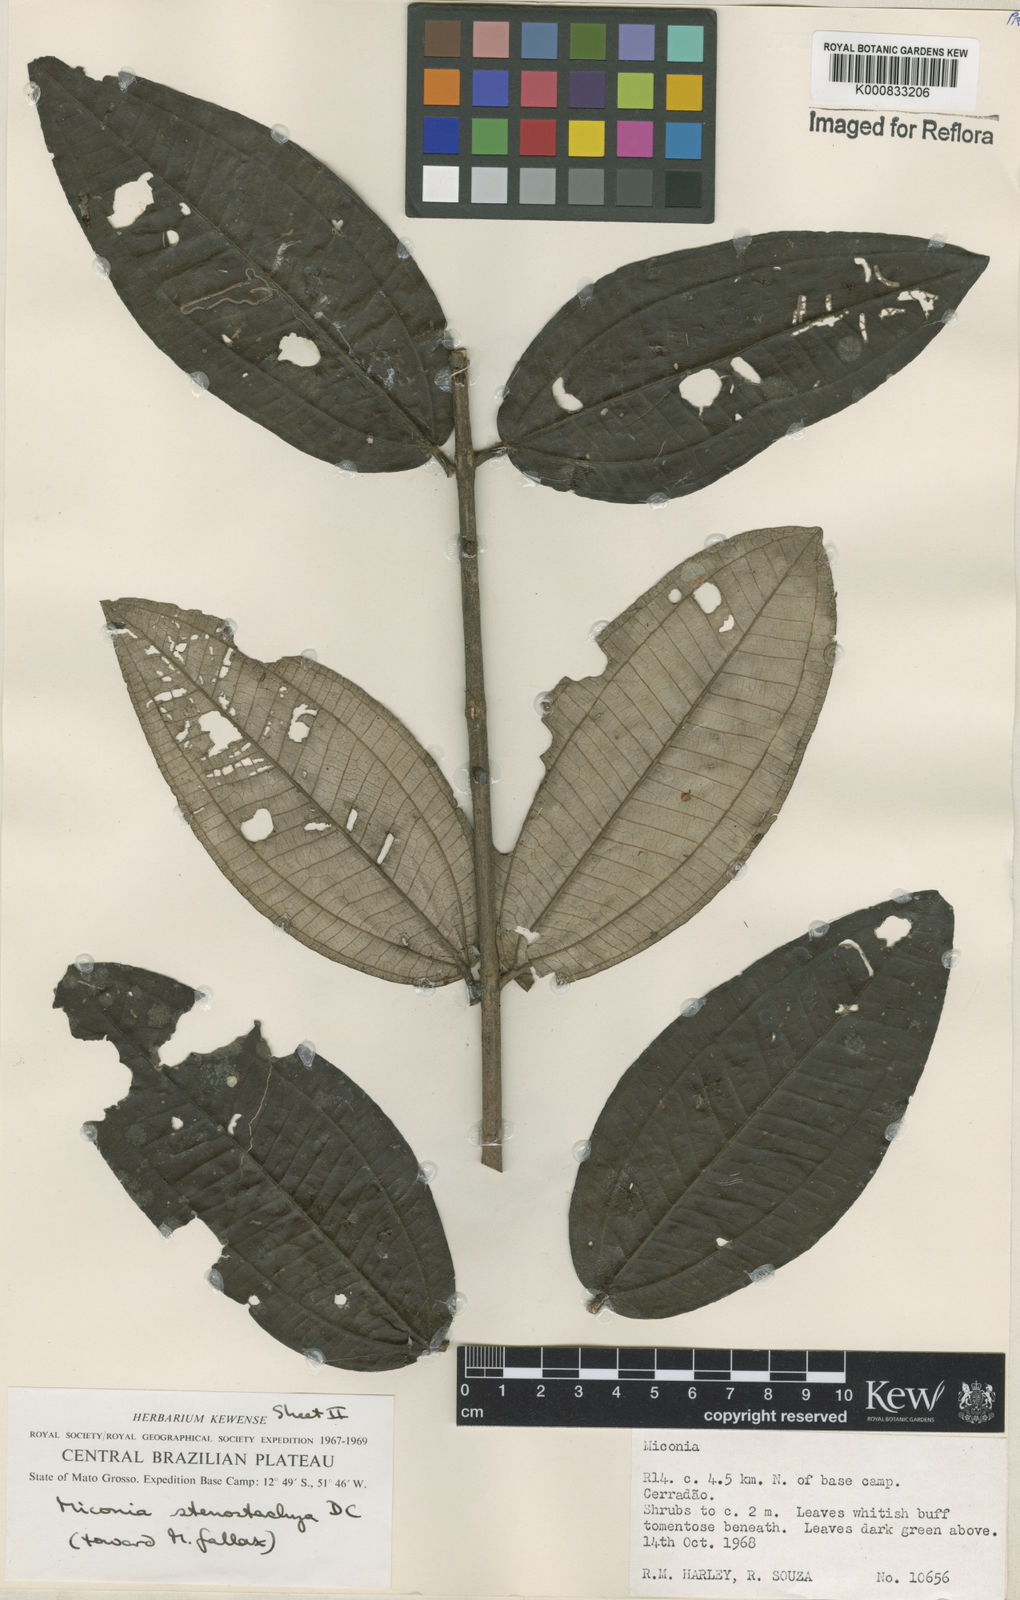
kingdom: Plantae
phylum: Tracheophyta
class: Magnoliopsida
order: Myrtales
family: Melastomataceae
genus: Miconia
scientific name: Miconia stenostachya
